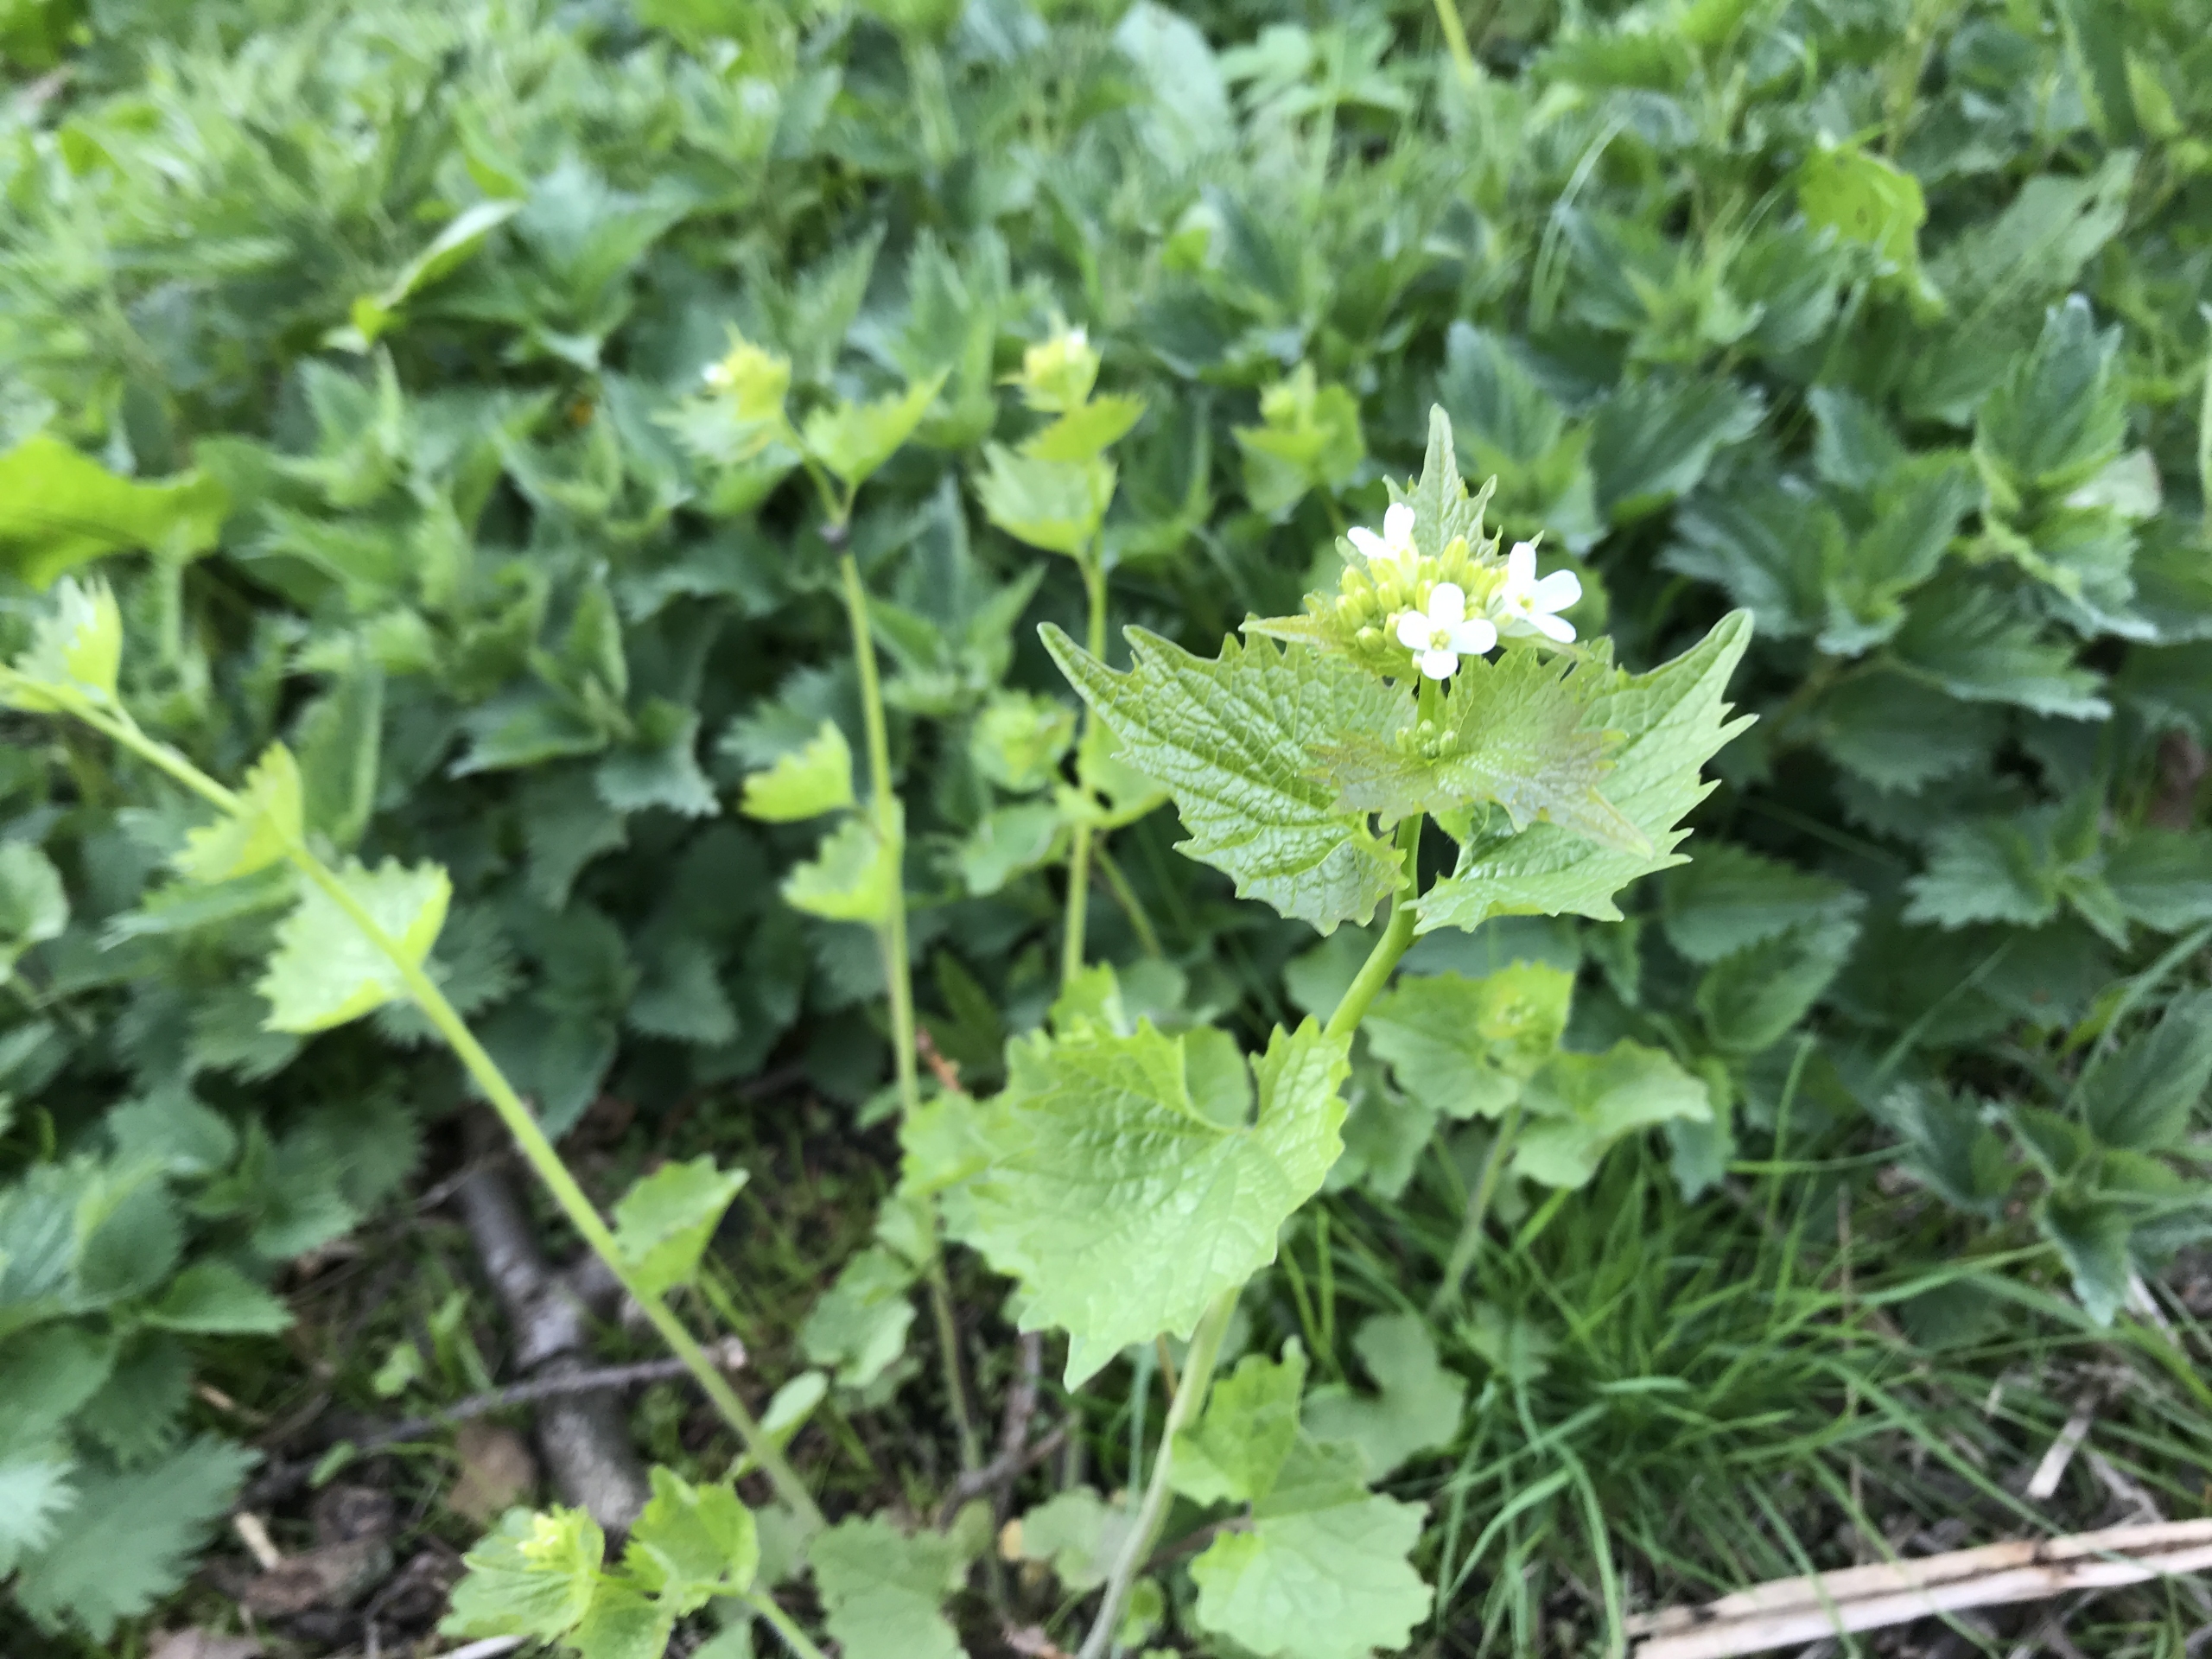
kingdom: Plantae
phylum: Tracheophyta
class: Magnoliopsida
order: Brassicales
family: Brassicaceae
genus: Alliaria
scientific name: Alliaria petiolata
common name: Løgkarse
